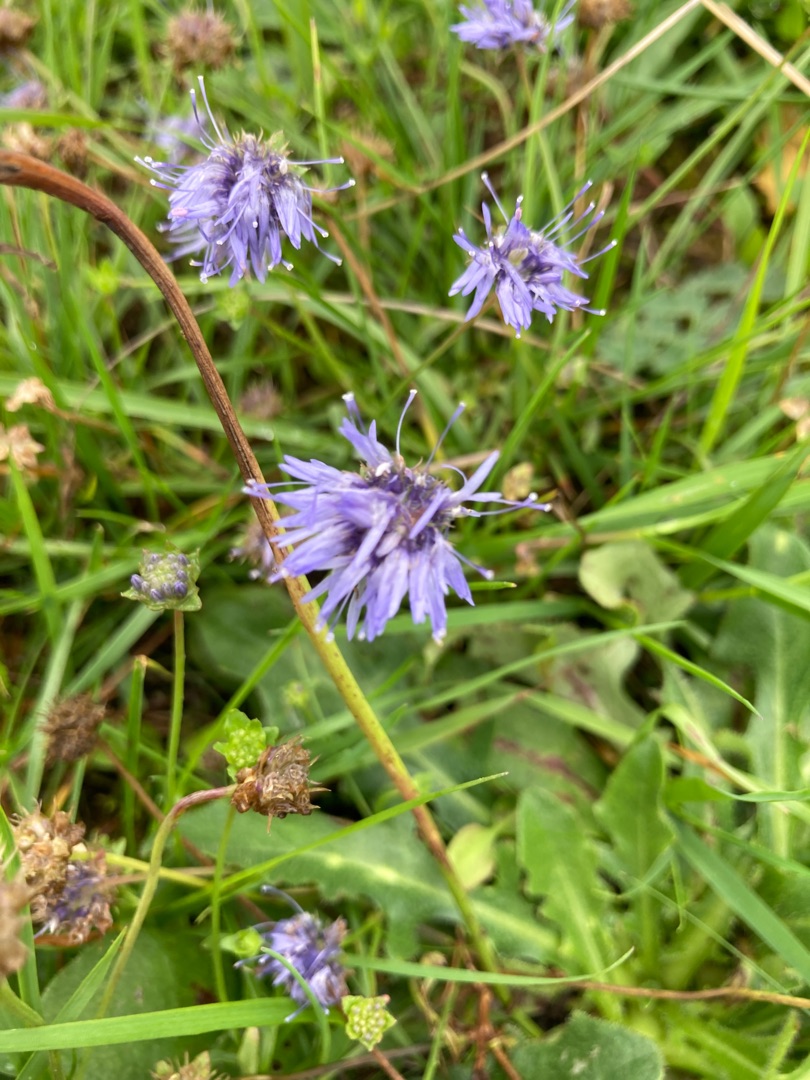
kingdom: Plantae
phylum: Tracheophyta
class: Magnoliopsida
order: Asterales
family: Campanulaceae
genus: Jasione
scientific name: Jasione montana
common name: Blåmunke
